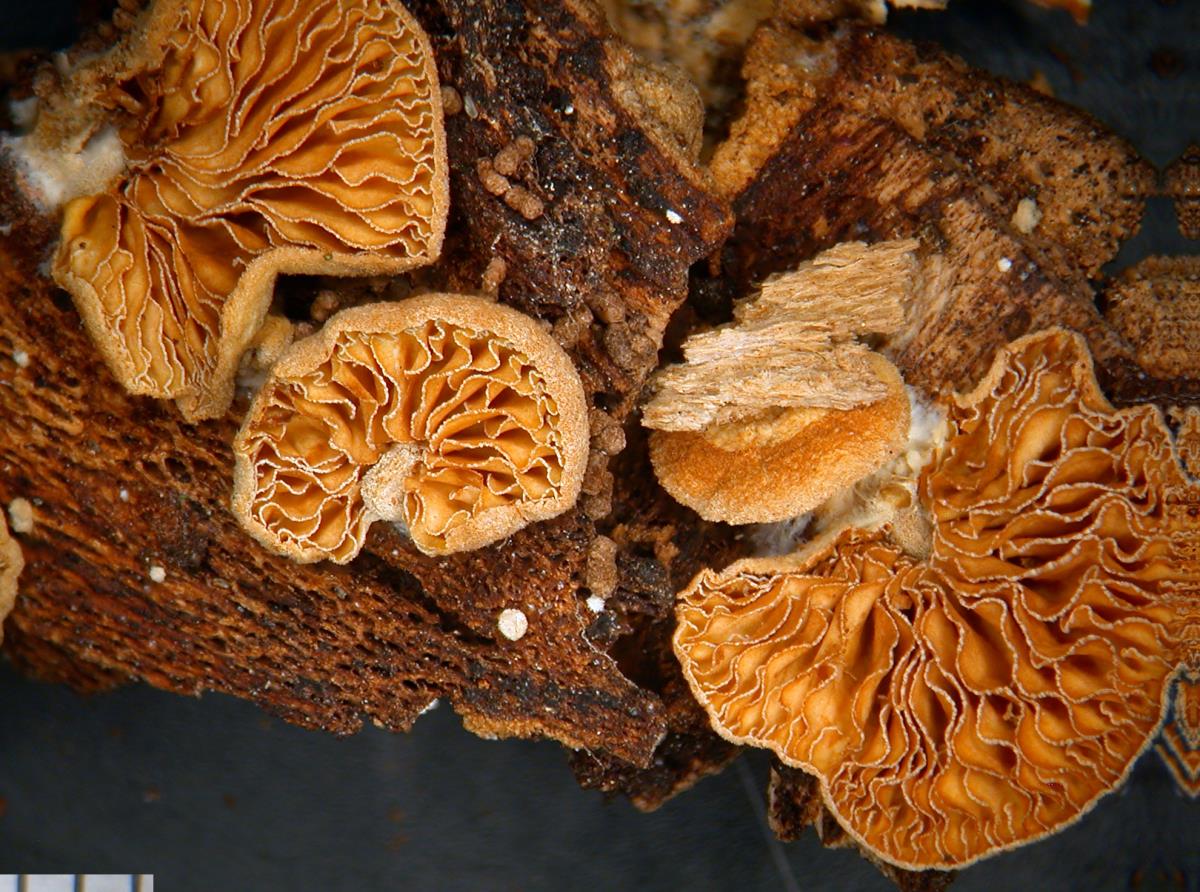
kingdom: Fungi
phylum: Basidiomycota
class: Agaricomycetes
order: Agaricales
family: Crepidotaceae
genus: Simocybe
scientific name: Simocybe rhabarbarina
